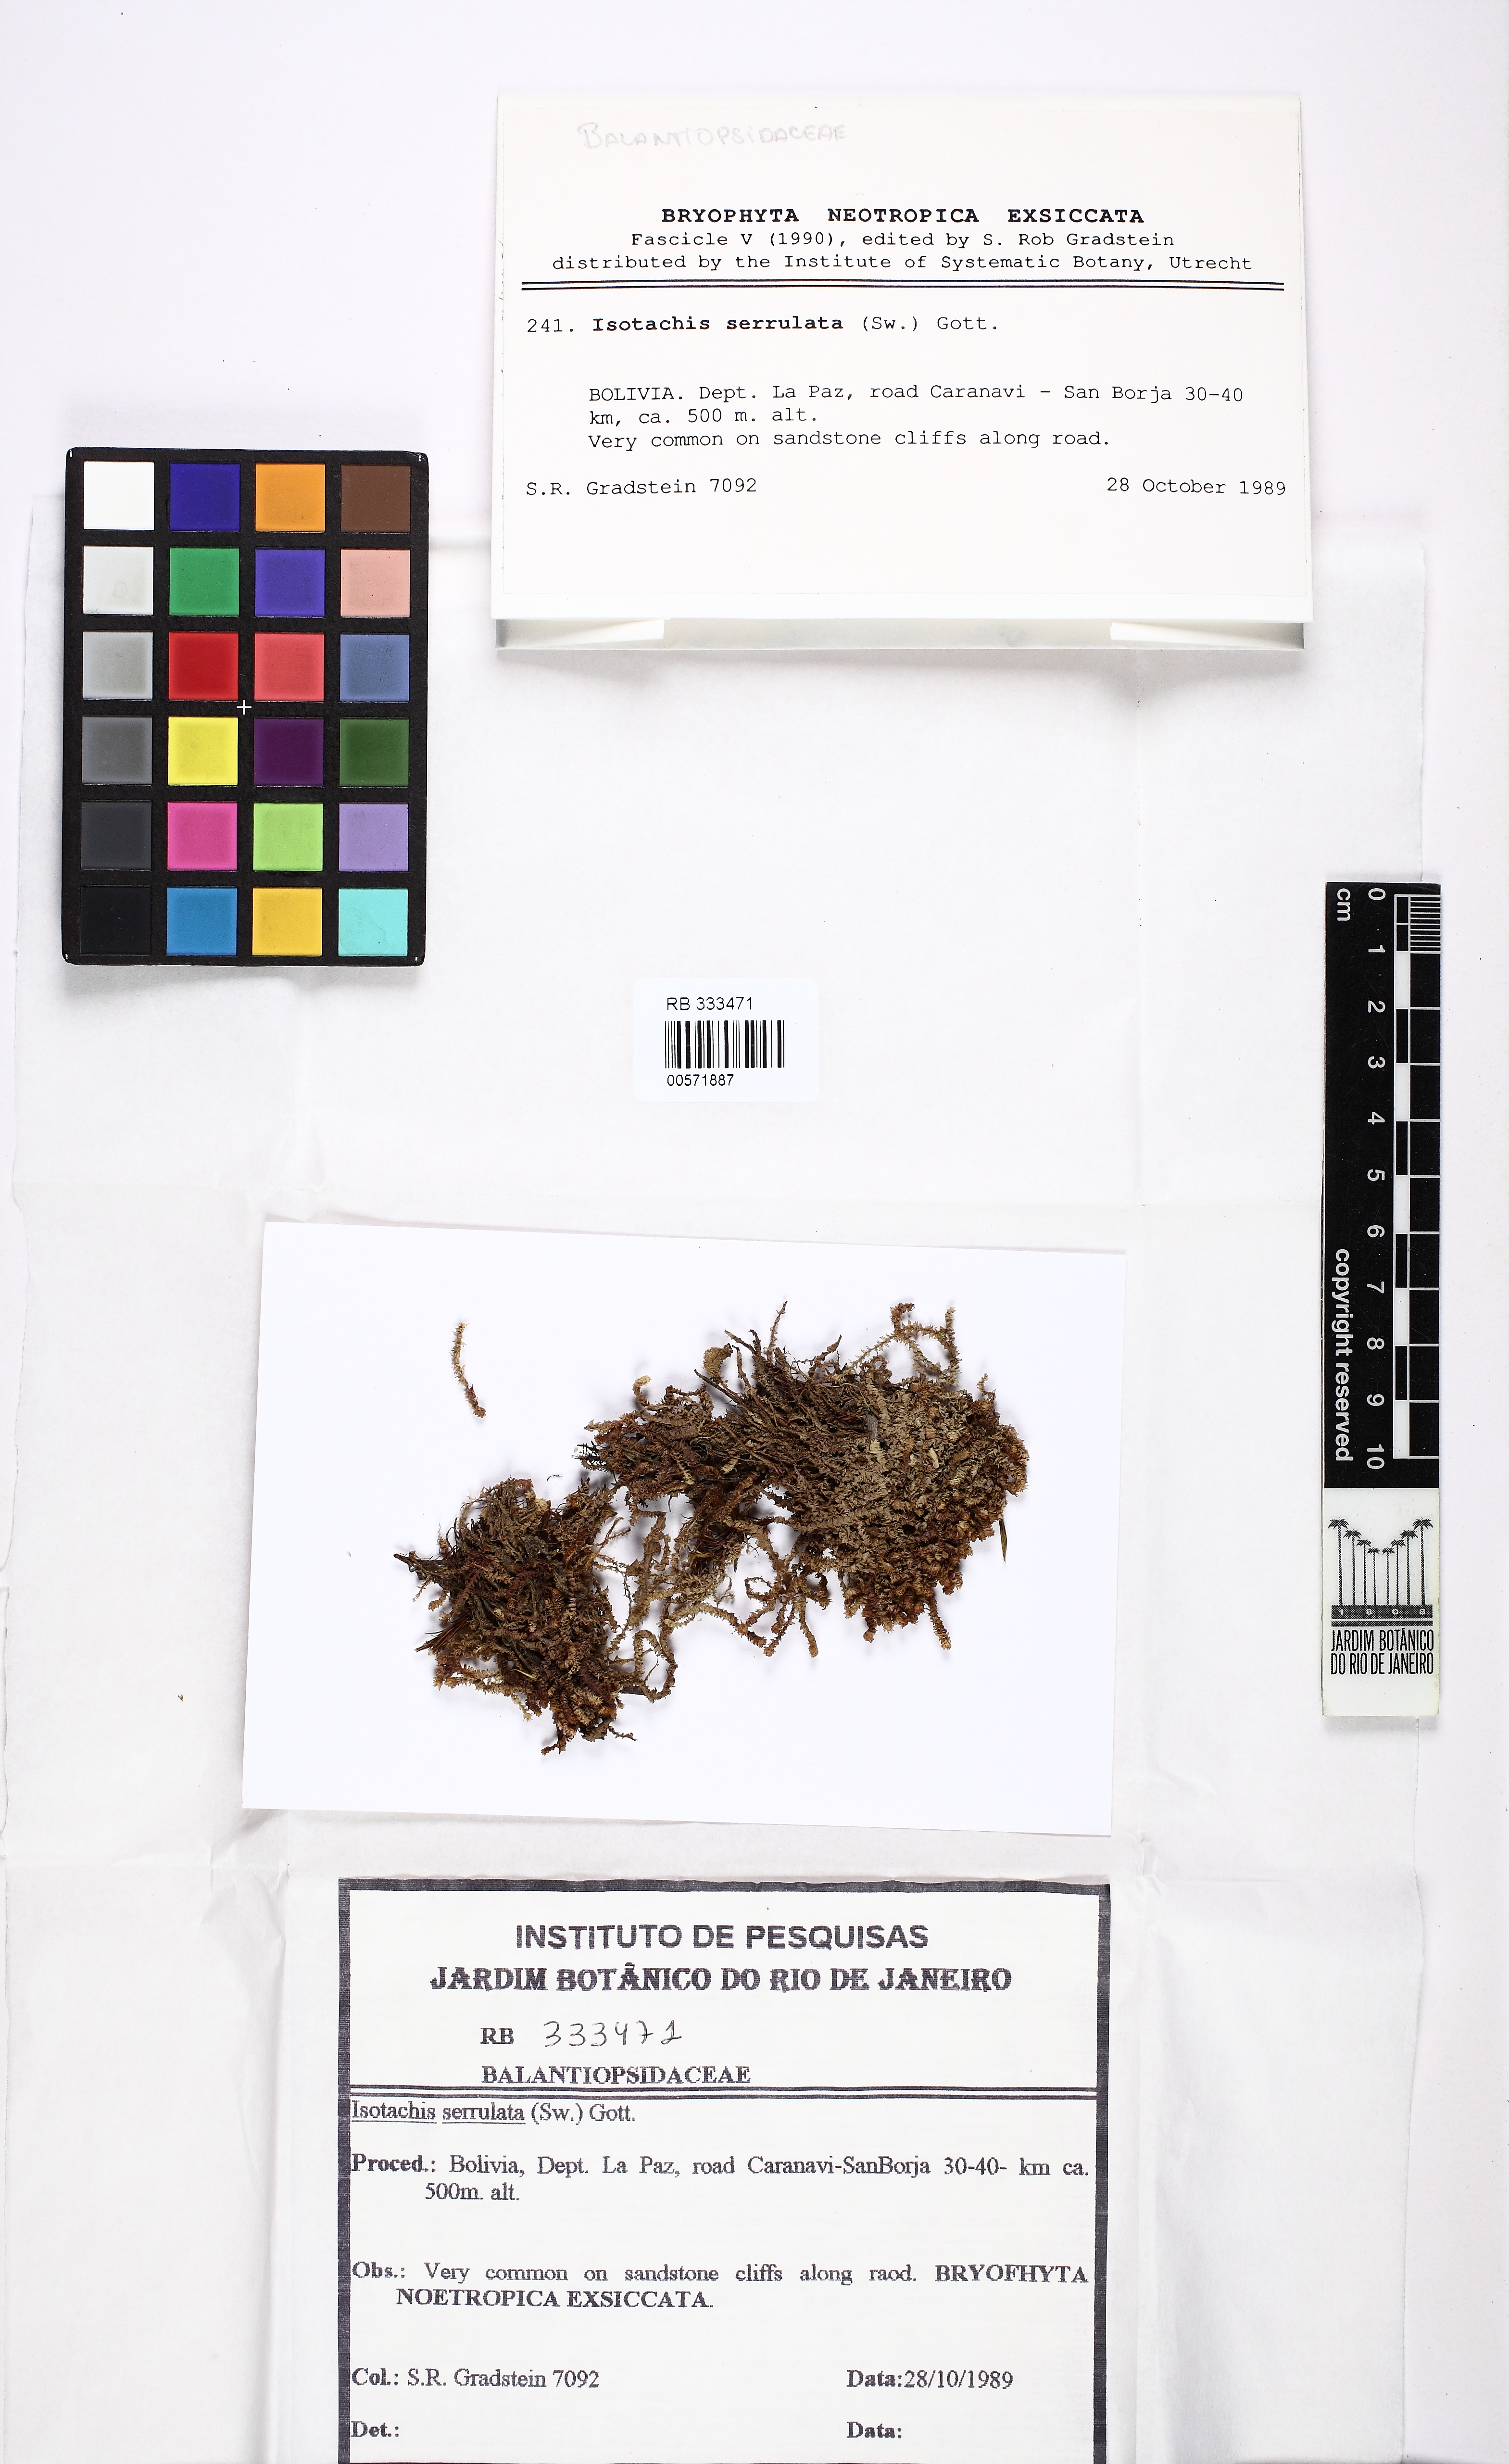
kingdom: Plantae
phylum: Marchantiophyta
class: Jungermanniopsida
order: Jungermanniales
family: Balantiopsidaceae
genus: Isotachis
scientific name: Isotachis serrulata
